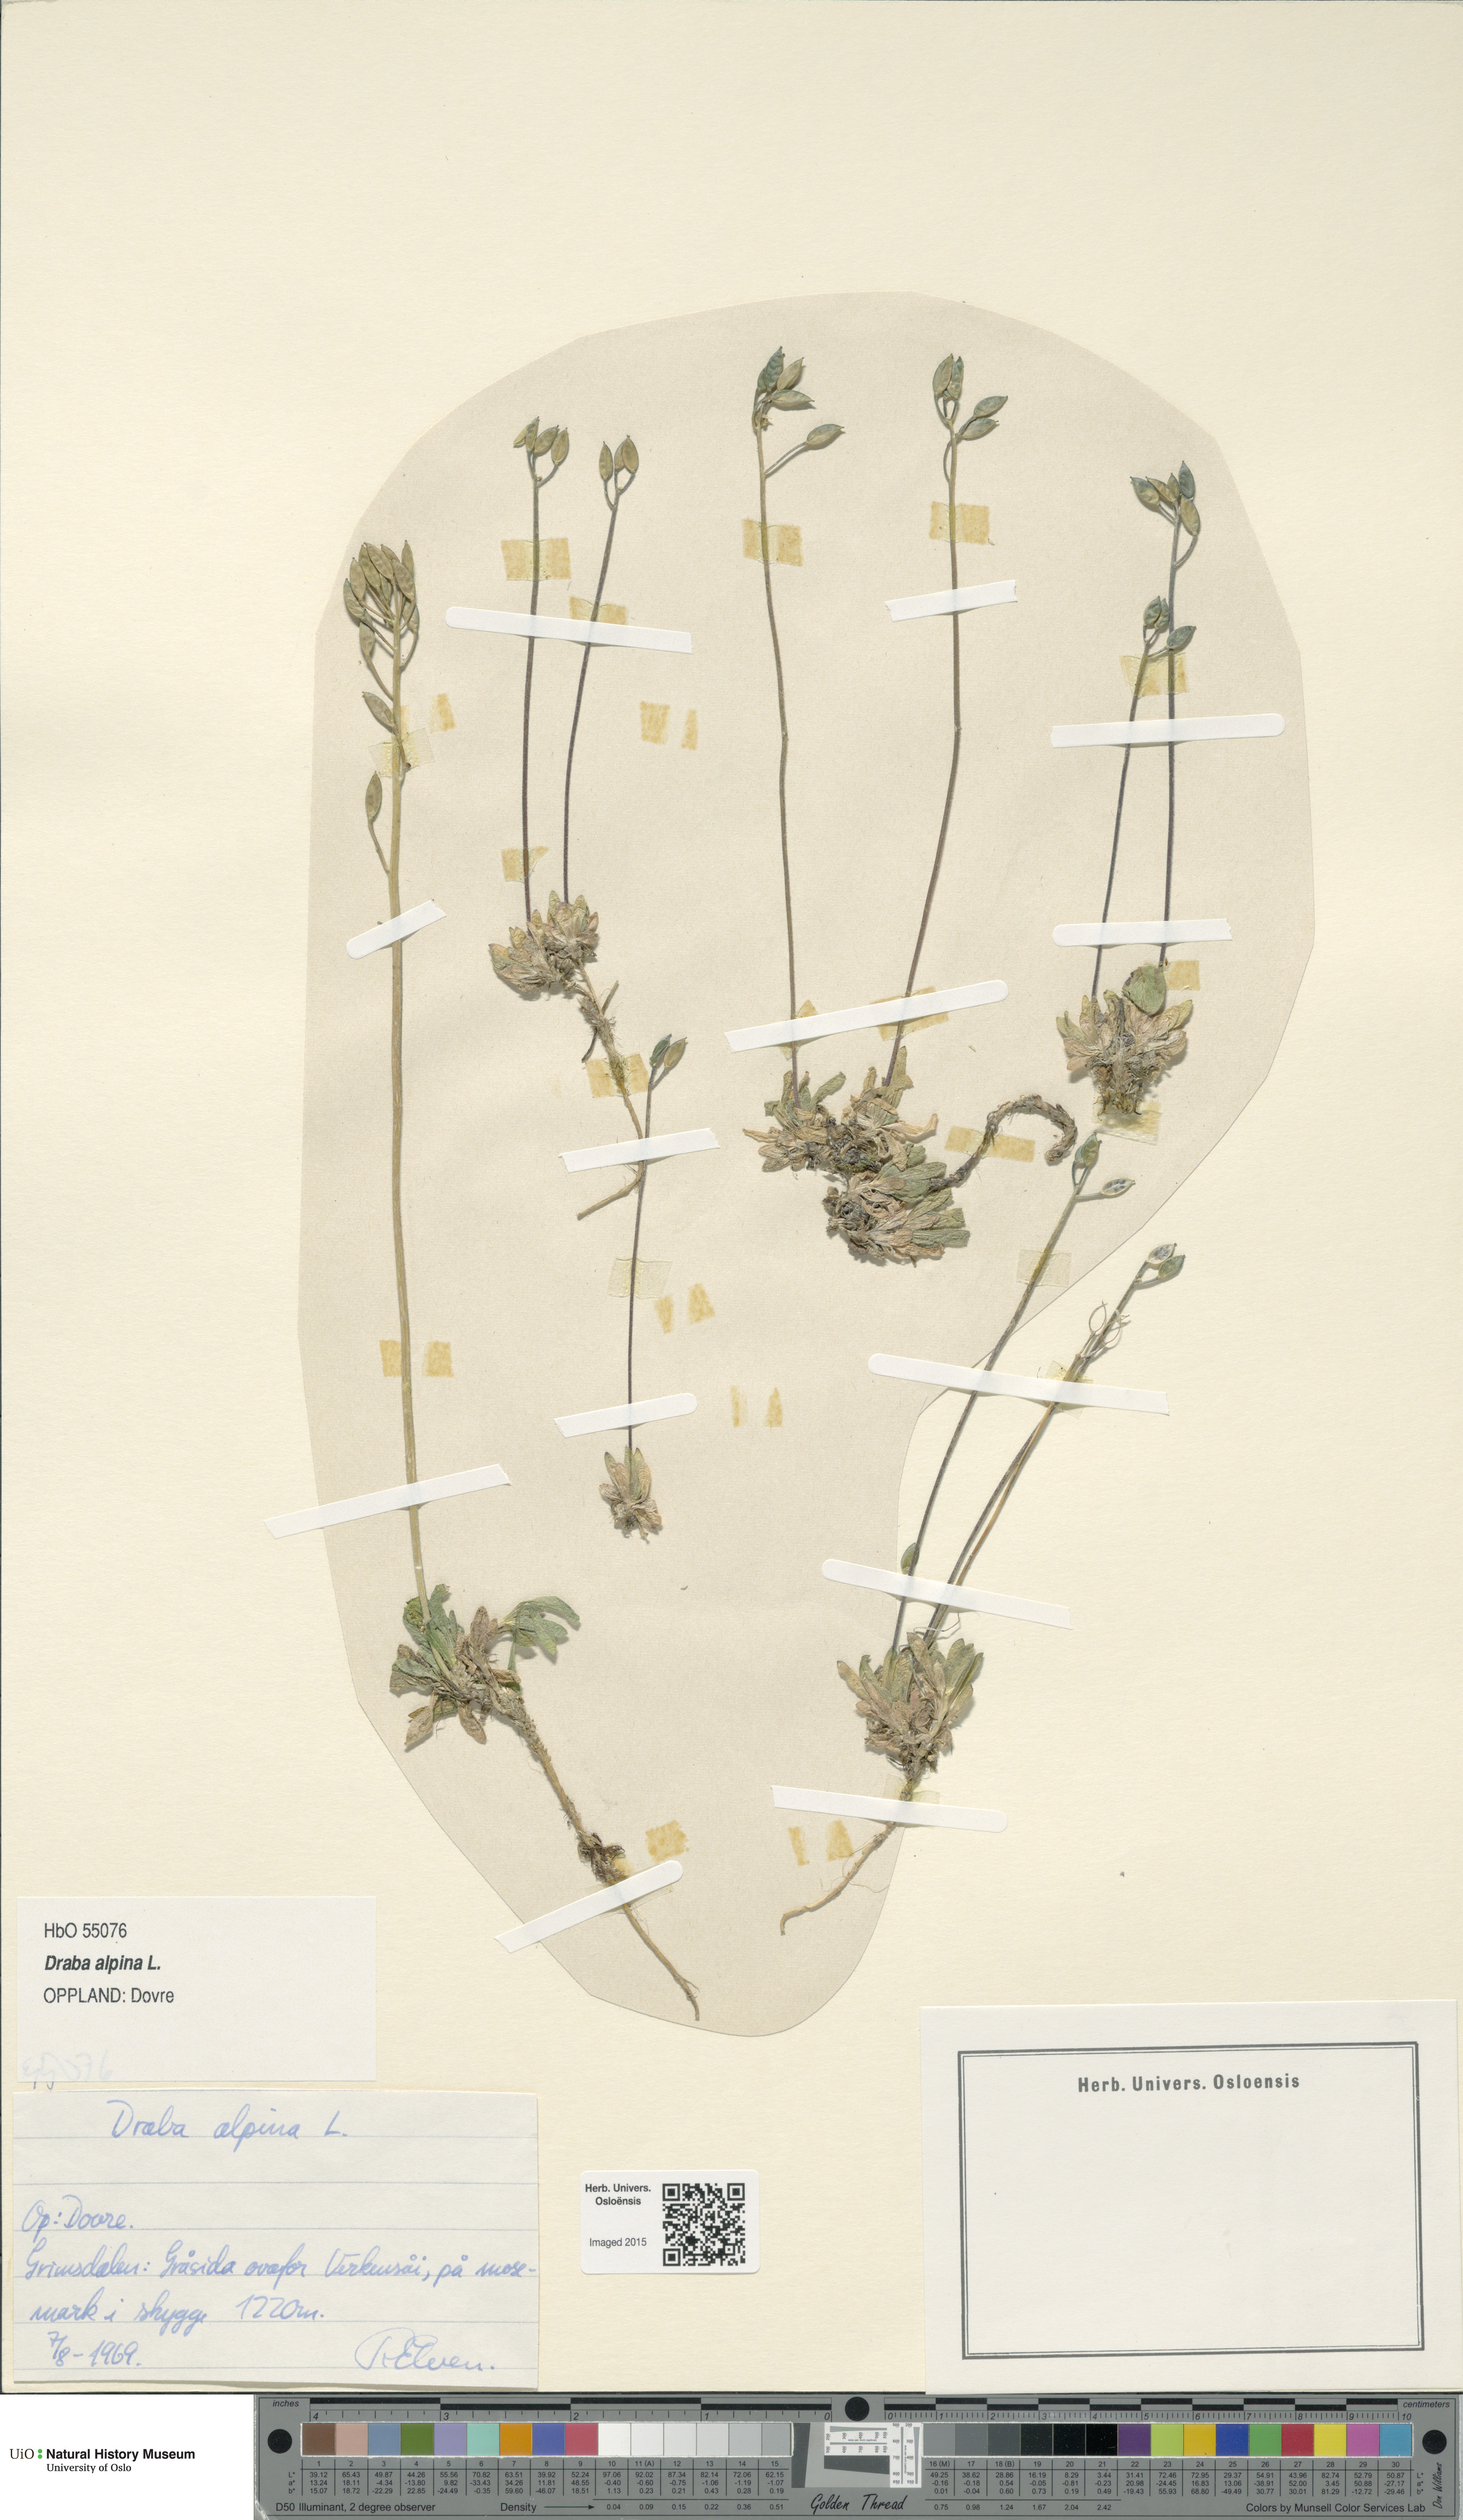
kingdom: Plantae
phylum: Tracheophyta
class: Magnoliopsida
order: Brassicales
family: Brassicaceae
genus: Draba
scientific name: Draba alpina
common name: Alpine draba
